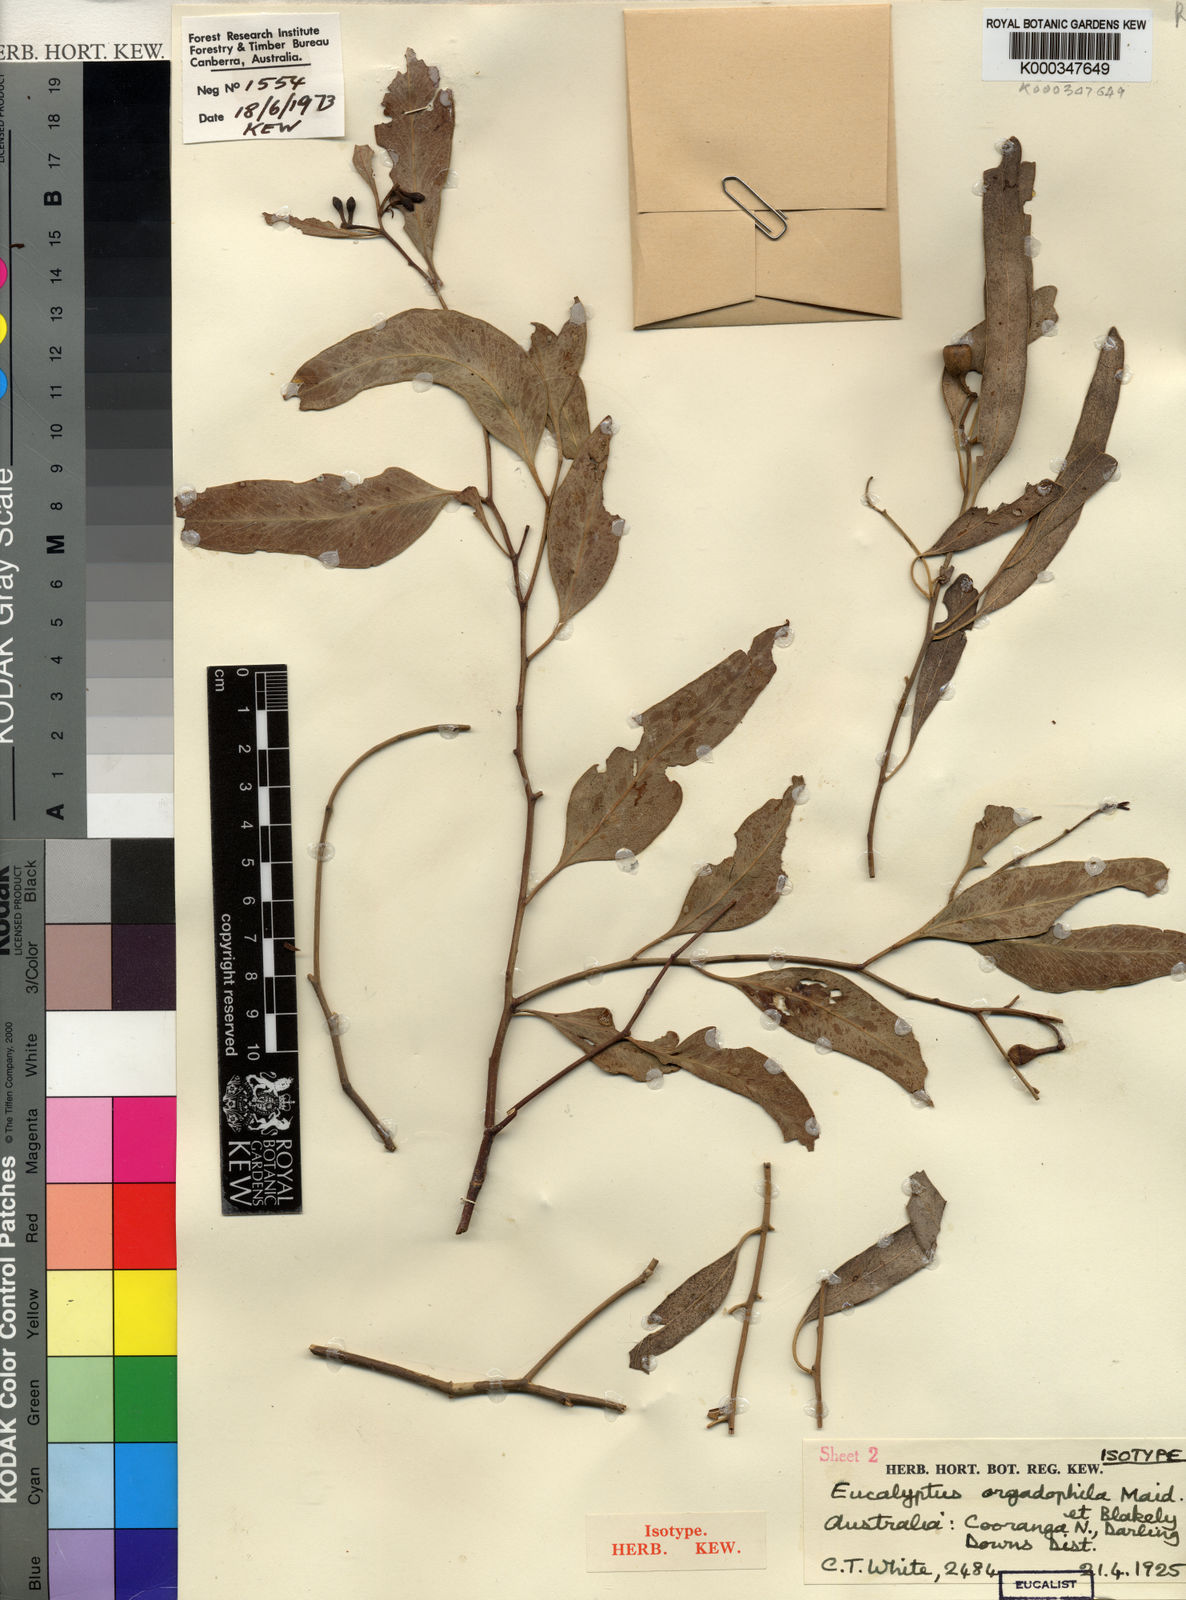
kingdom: Plantae
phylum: Tracheophyta
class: Magnoliopsida
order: Myrtales
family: Myrtaceae
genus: Eucalyptus
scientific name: Eucalyptus orgadophila
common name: Mountain coolibah
